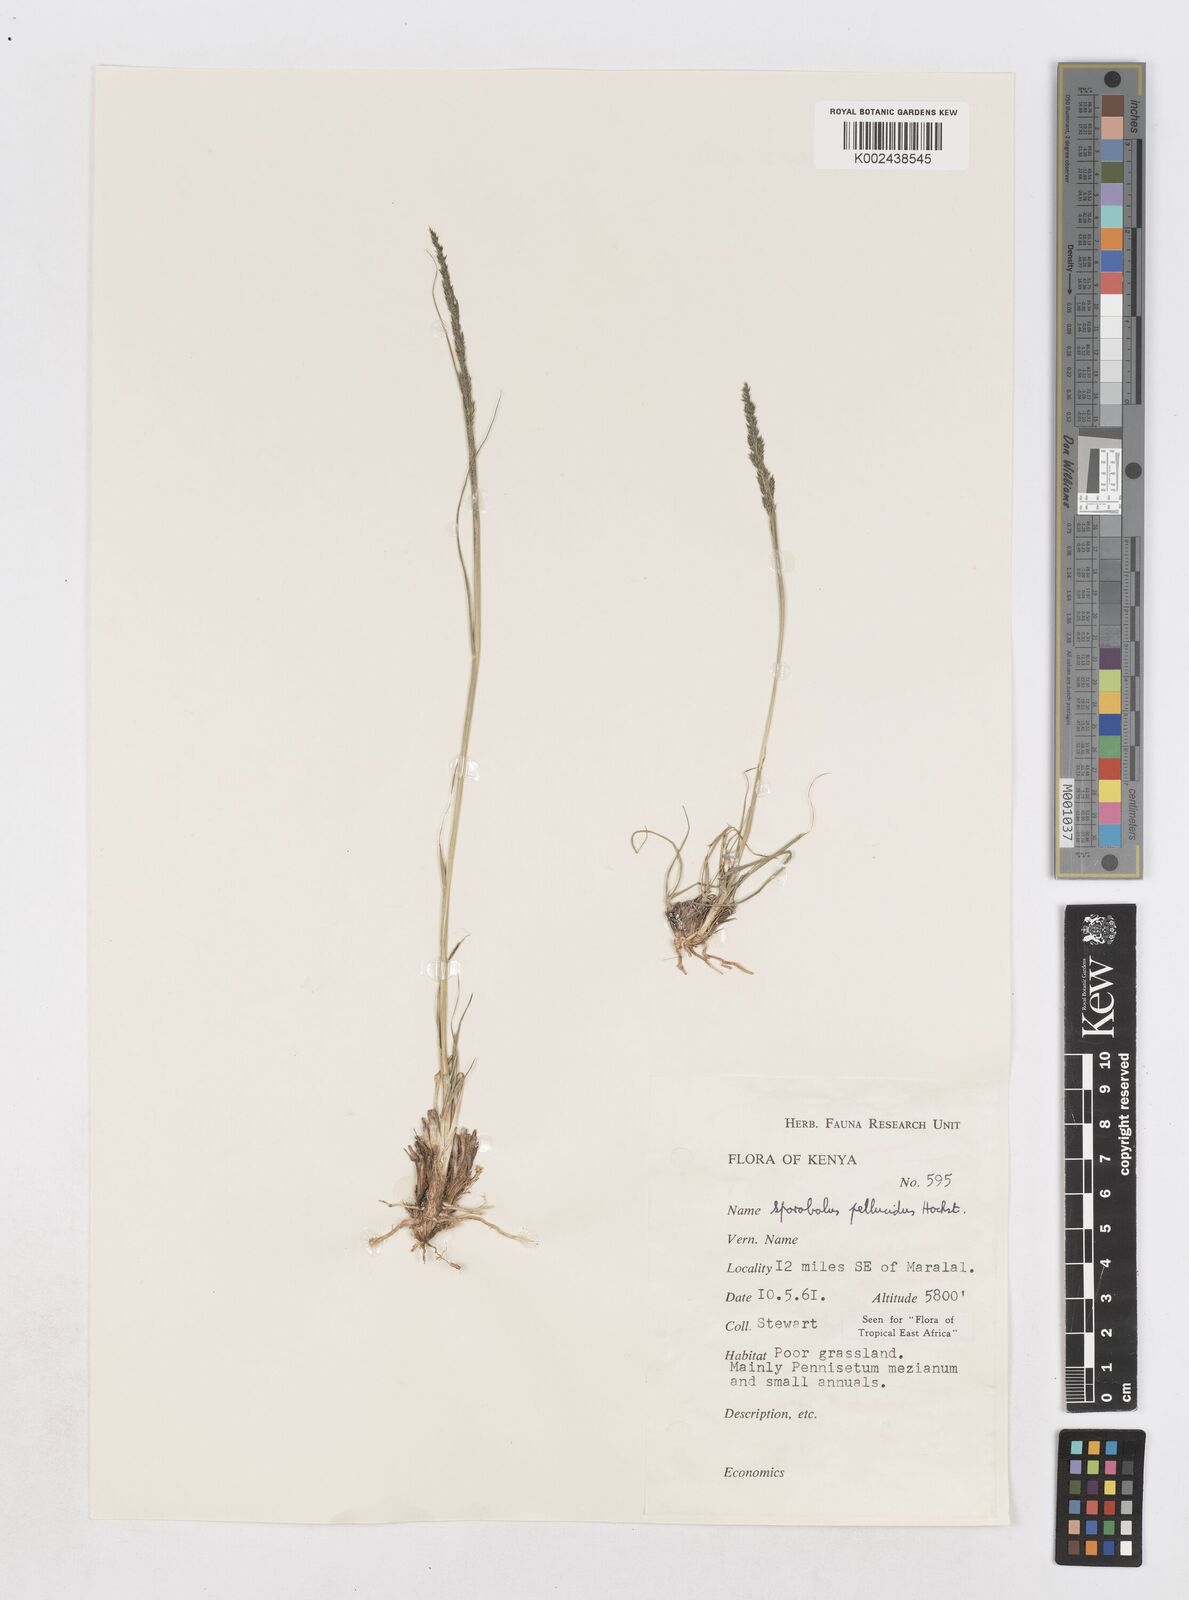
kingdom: Plantae
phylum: Tracheophyta
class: Liliopsida
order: Poales
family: Poaceae
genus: Sporobolus
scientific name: Sporobolus pellucidus
